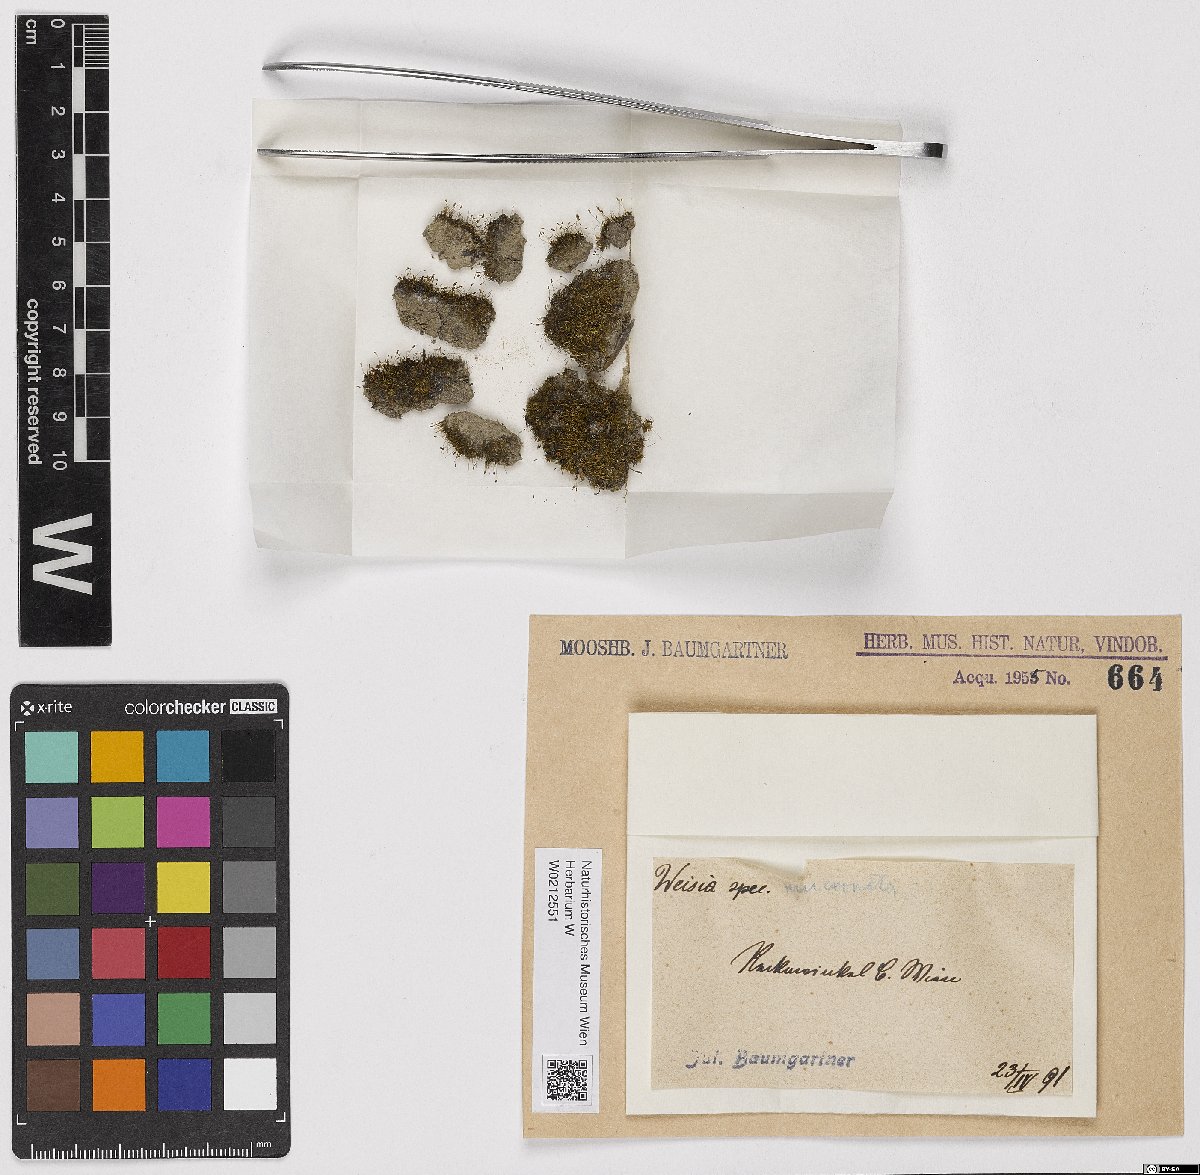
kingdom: Plantae
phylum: Bryophyta
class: Bryopsida
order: Pottiales
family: Pottiaceae
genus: Weissia
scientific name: Weissia rutilans
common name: Pointed-leaved stubble-moss
